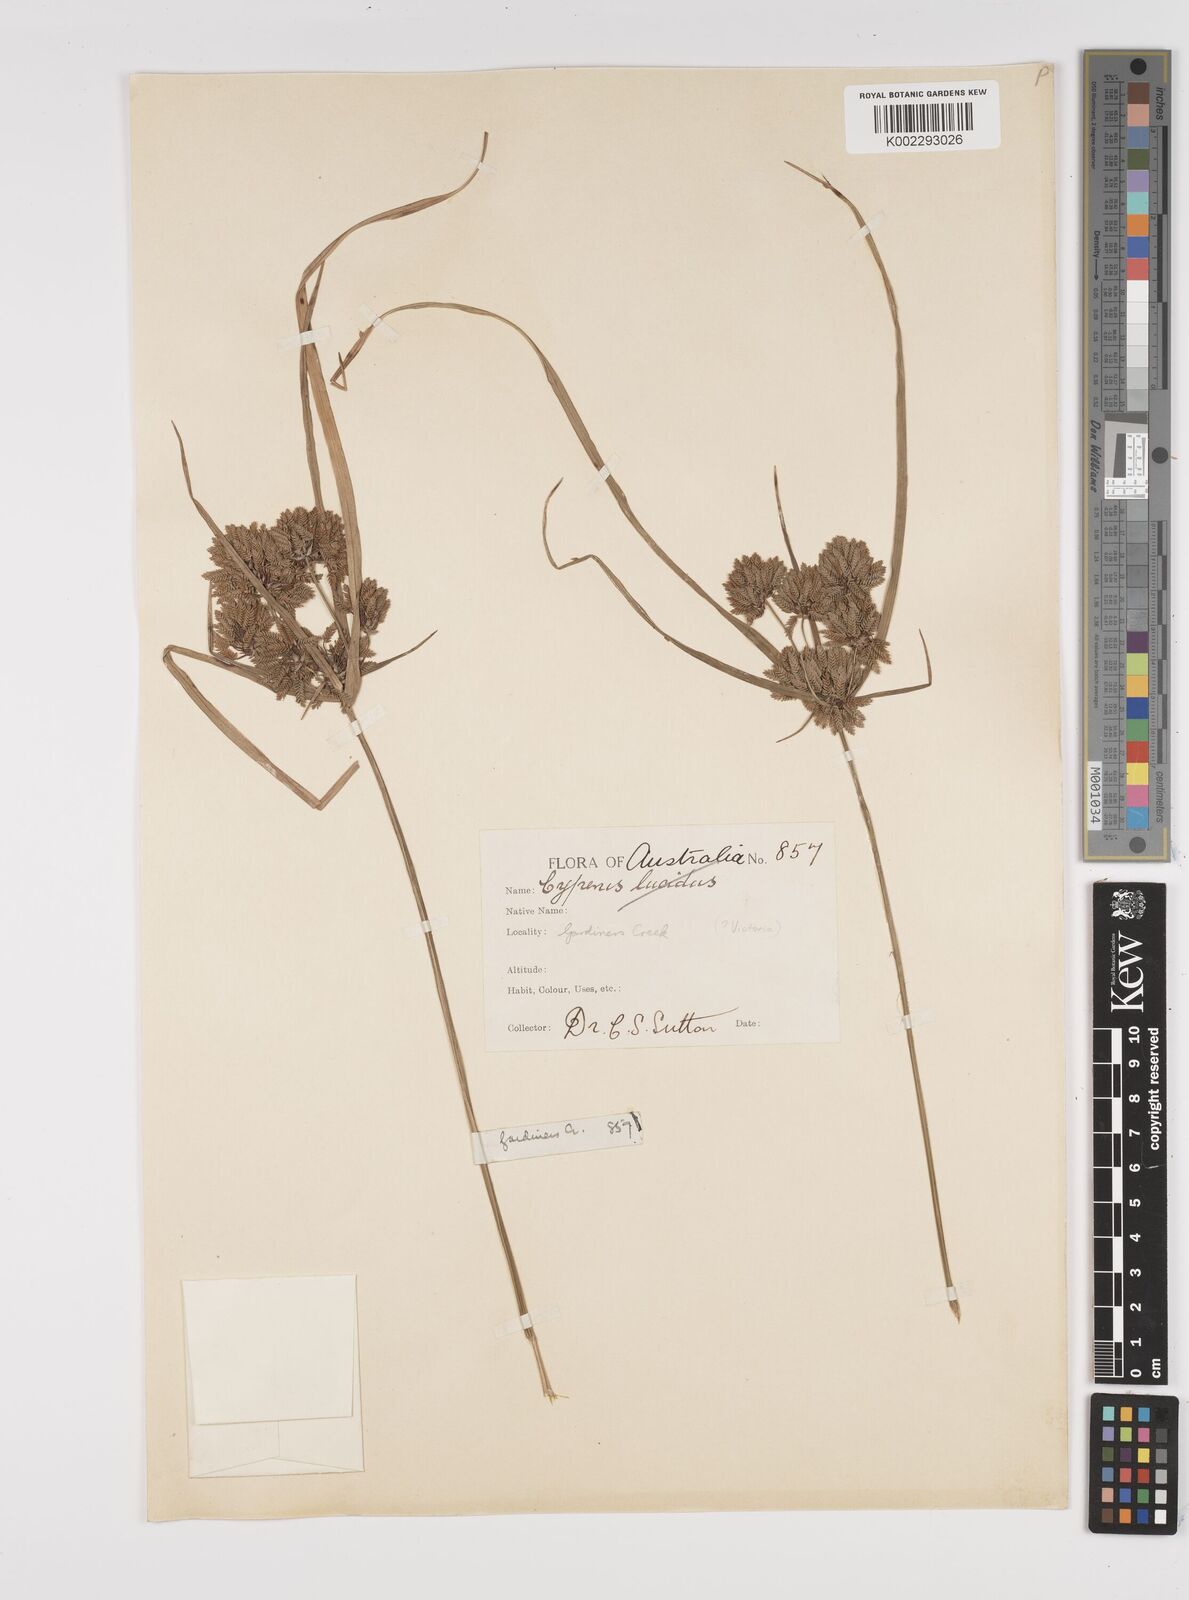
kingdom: Plantae
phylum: Tracheophyta
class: Liliopsida
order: Poales
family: Cyperaceae
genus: Cyperus
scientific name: Cyperus eragrostis
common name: Tall flatsedge
